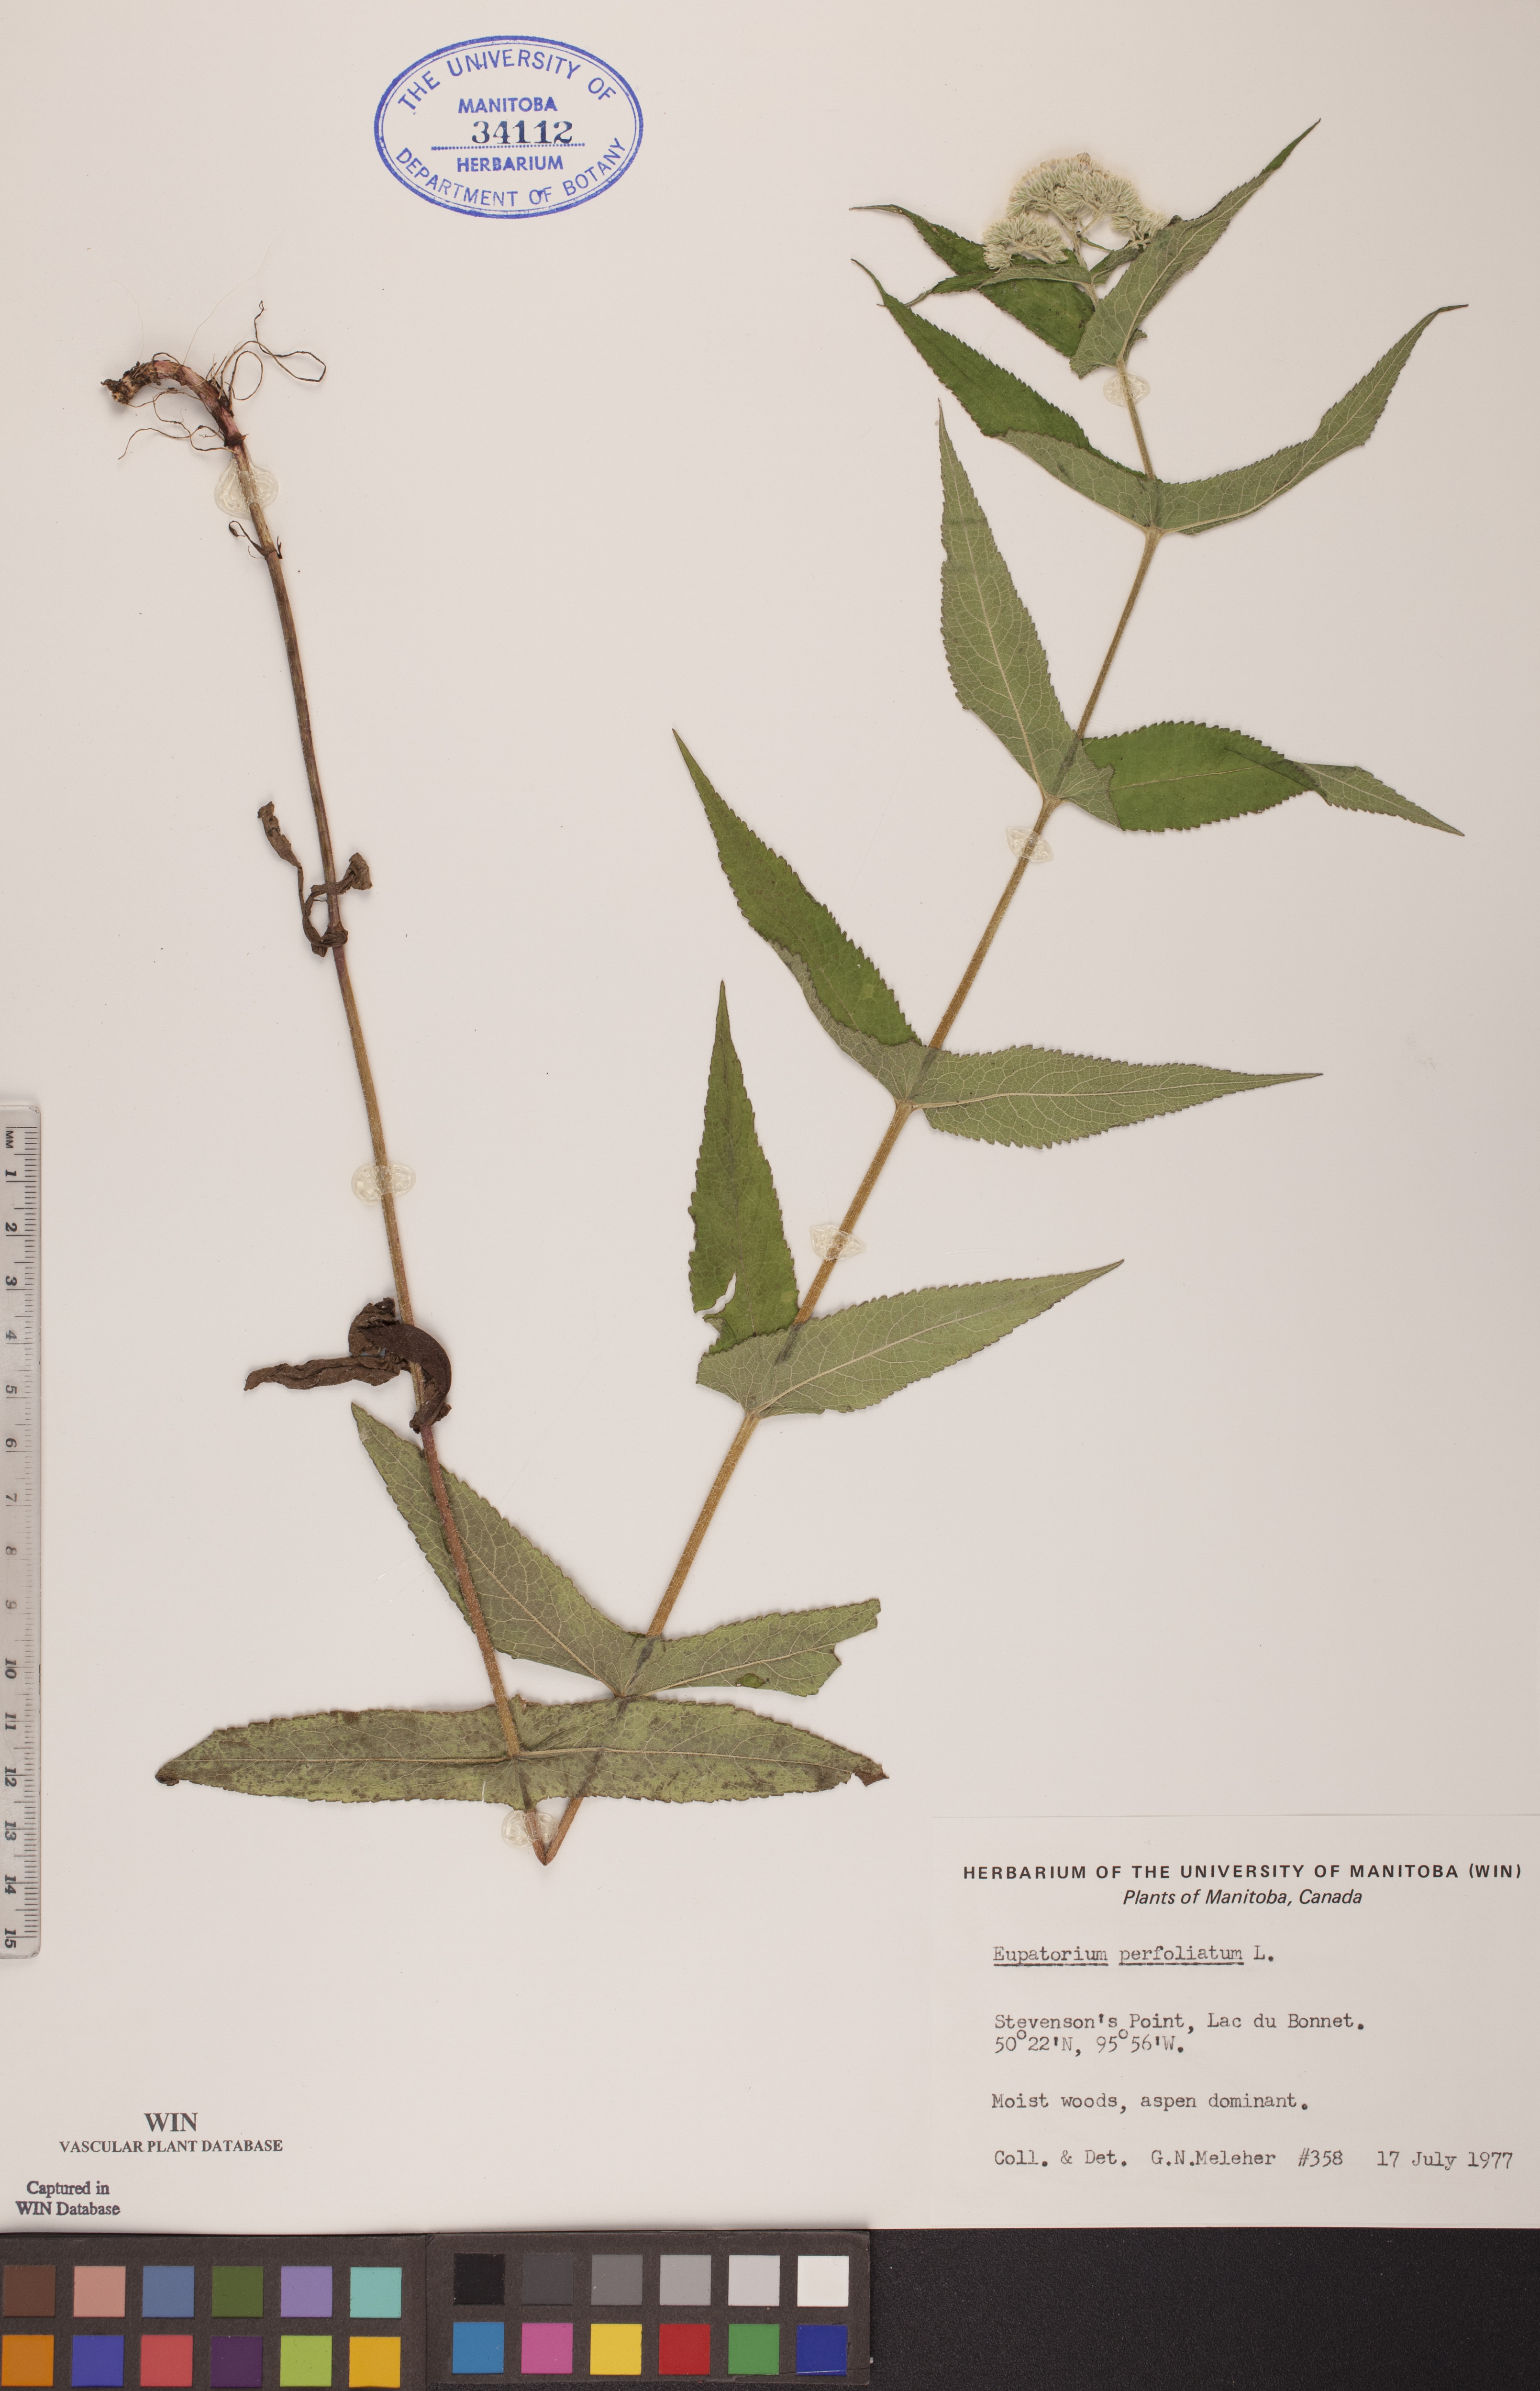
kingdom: Plantae
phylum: Tracheophyta
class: Magnoliopsida
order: Asterales
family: Asteraceae
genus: Eupatorium
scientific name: Eupatorium perfoliatum
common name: Boneset
